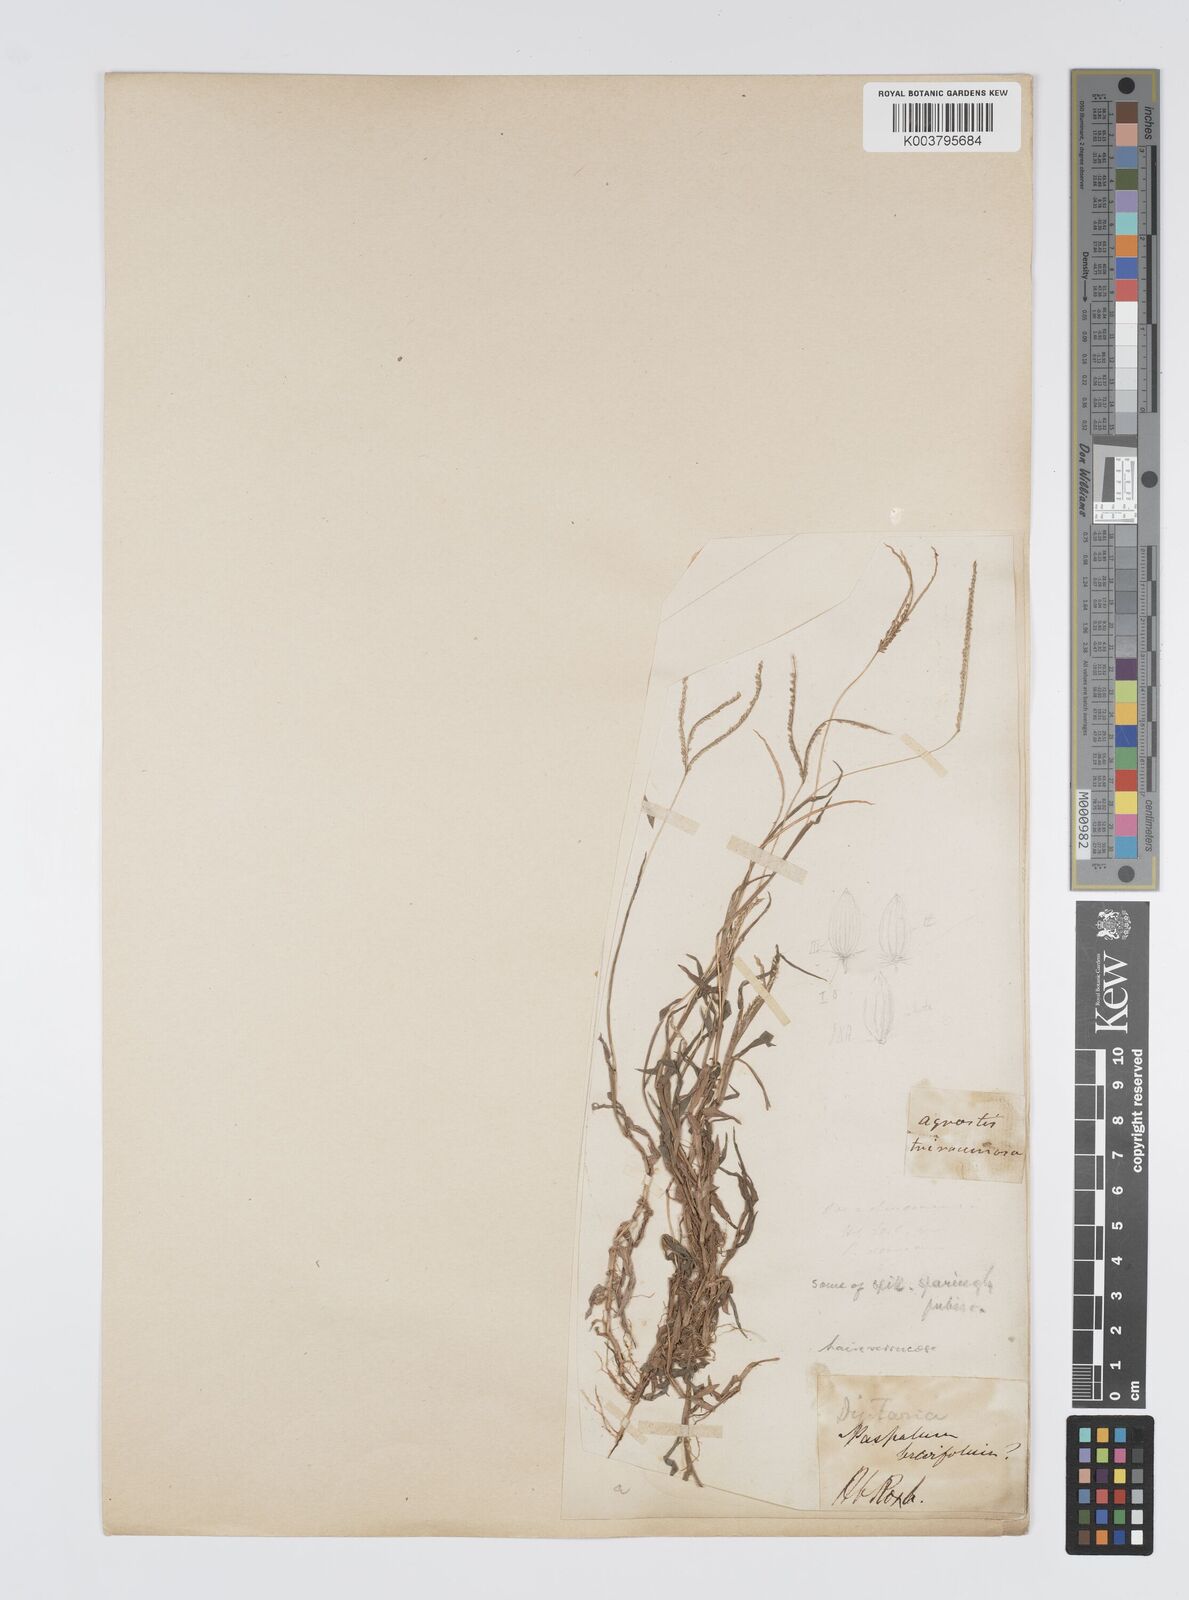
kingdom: Plantae
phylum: Tracheophyta
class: Liliopsida
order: Poales
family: Poaceae
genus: Digitaria
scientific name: Digitaria longiflora
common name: Wire crabgrass
